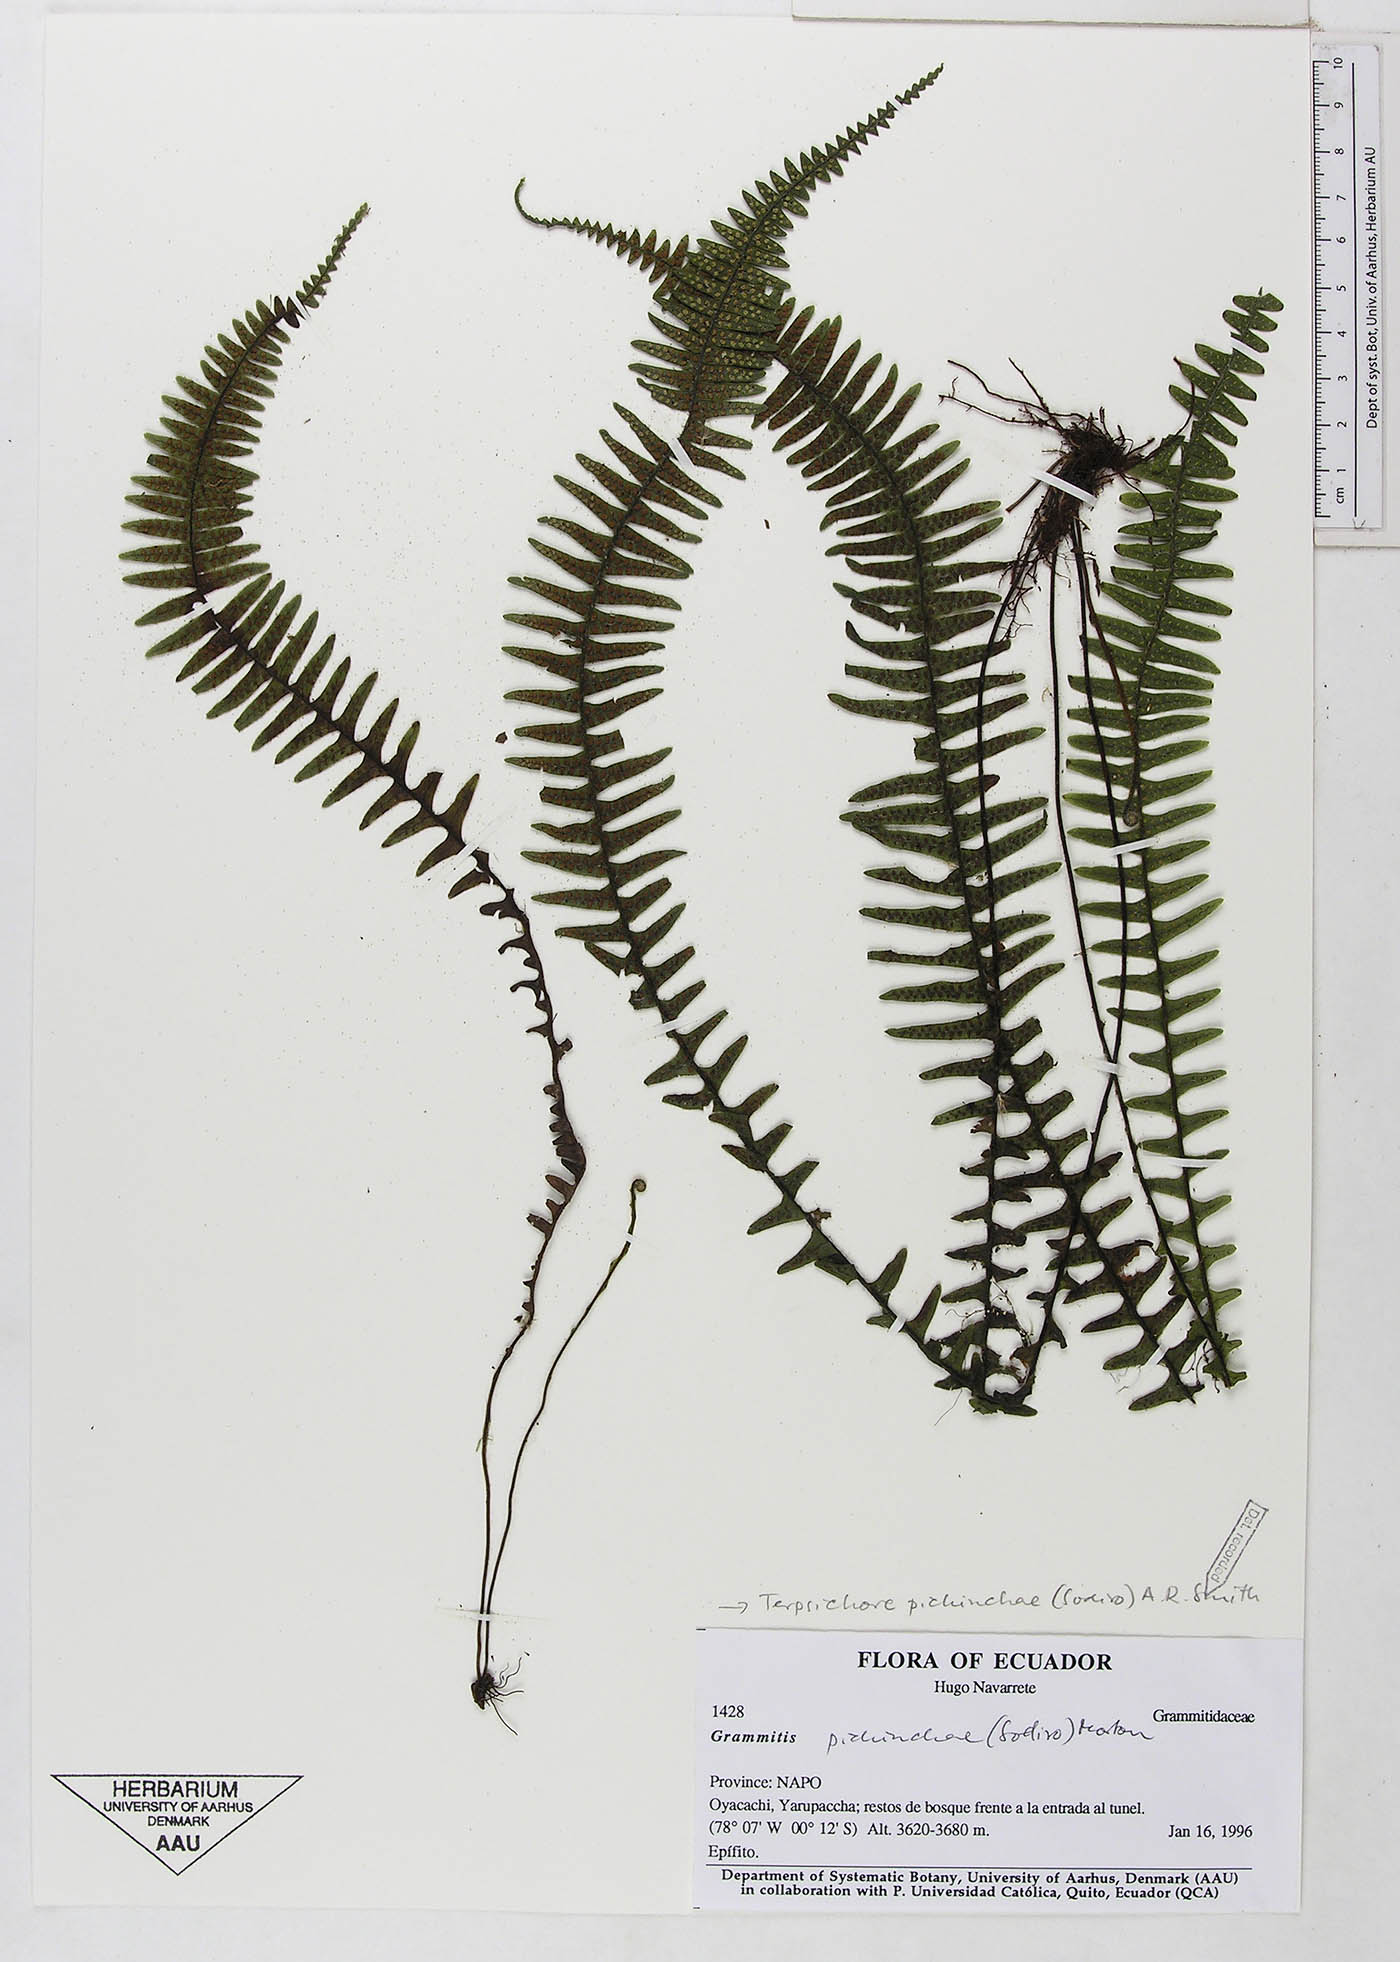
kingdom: Plantae
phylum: Tracheophyta
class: Polypodiopsida
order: Polypodiales
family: Polypodiaceae
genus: Ascogrammitis
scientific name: Ascogrammitis pichinchae
